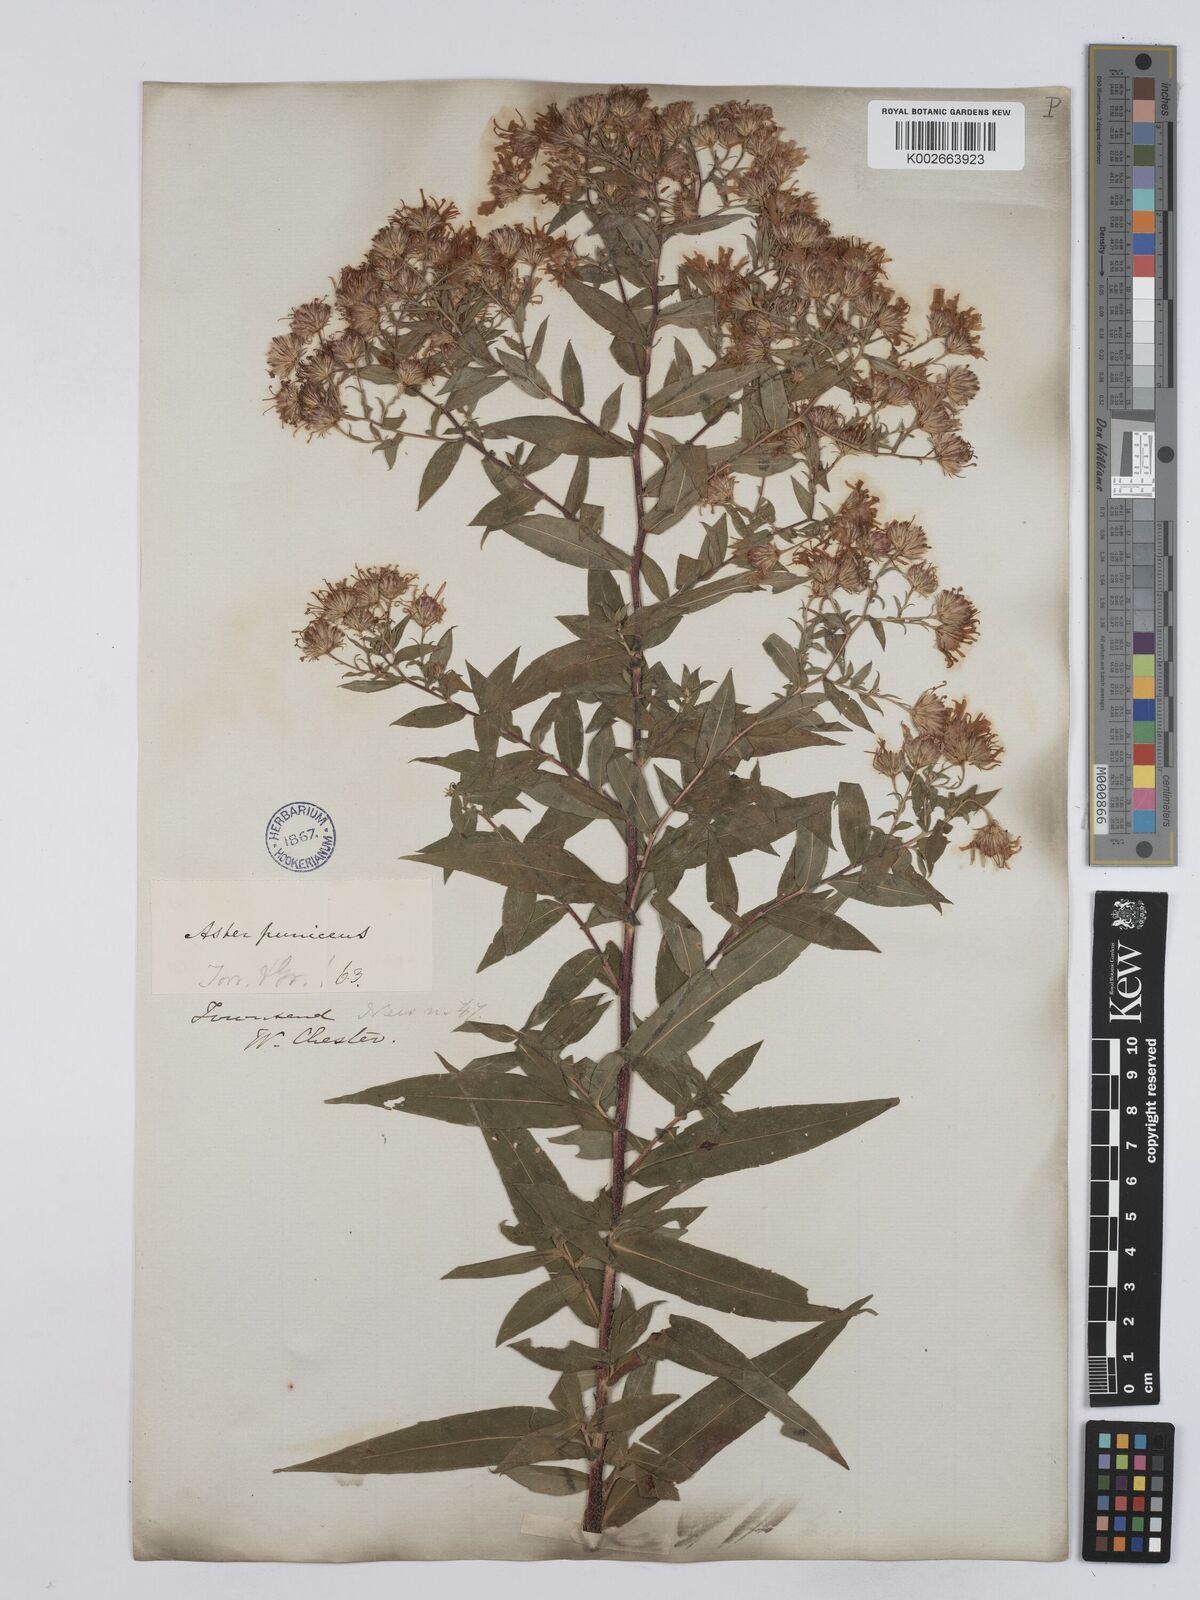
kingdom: Plantae
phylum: Tracheophyta
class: Magnoliopsida
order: Asterales
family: Asteraceae
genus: Symphyotrichum
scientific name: Symphyotrichum puniceum
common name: Bog aster
